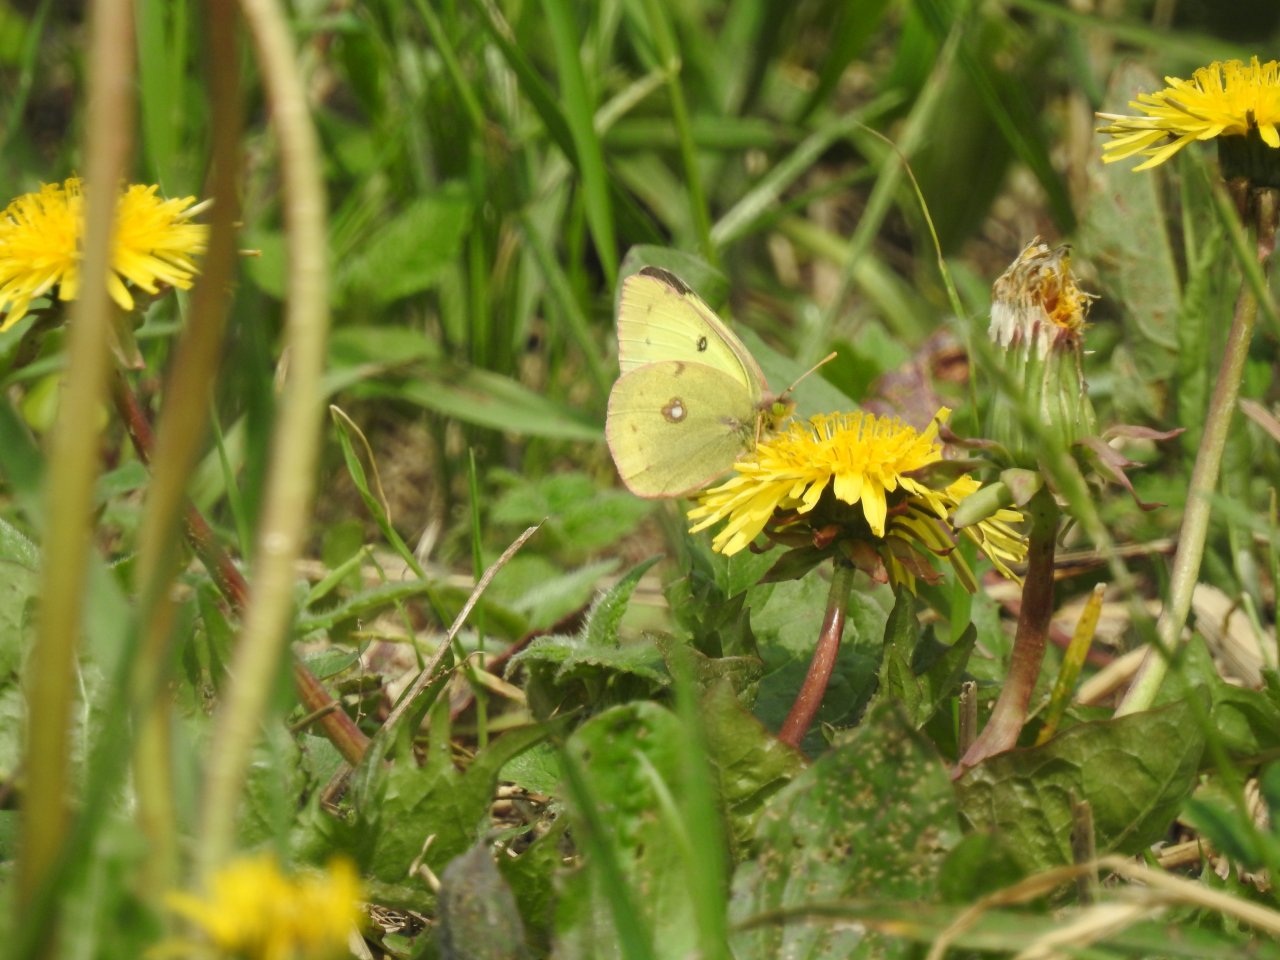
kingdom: Animalia
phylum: Arthropoda
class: Insecta
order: Lepidoptera
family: Pieridae
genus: Colias
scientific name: Colias philodice
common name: Clouded Sulphur
